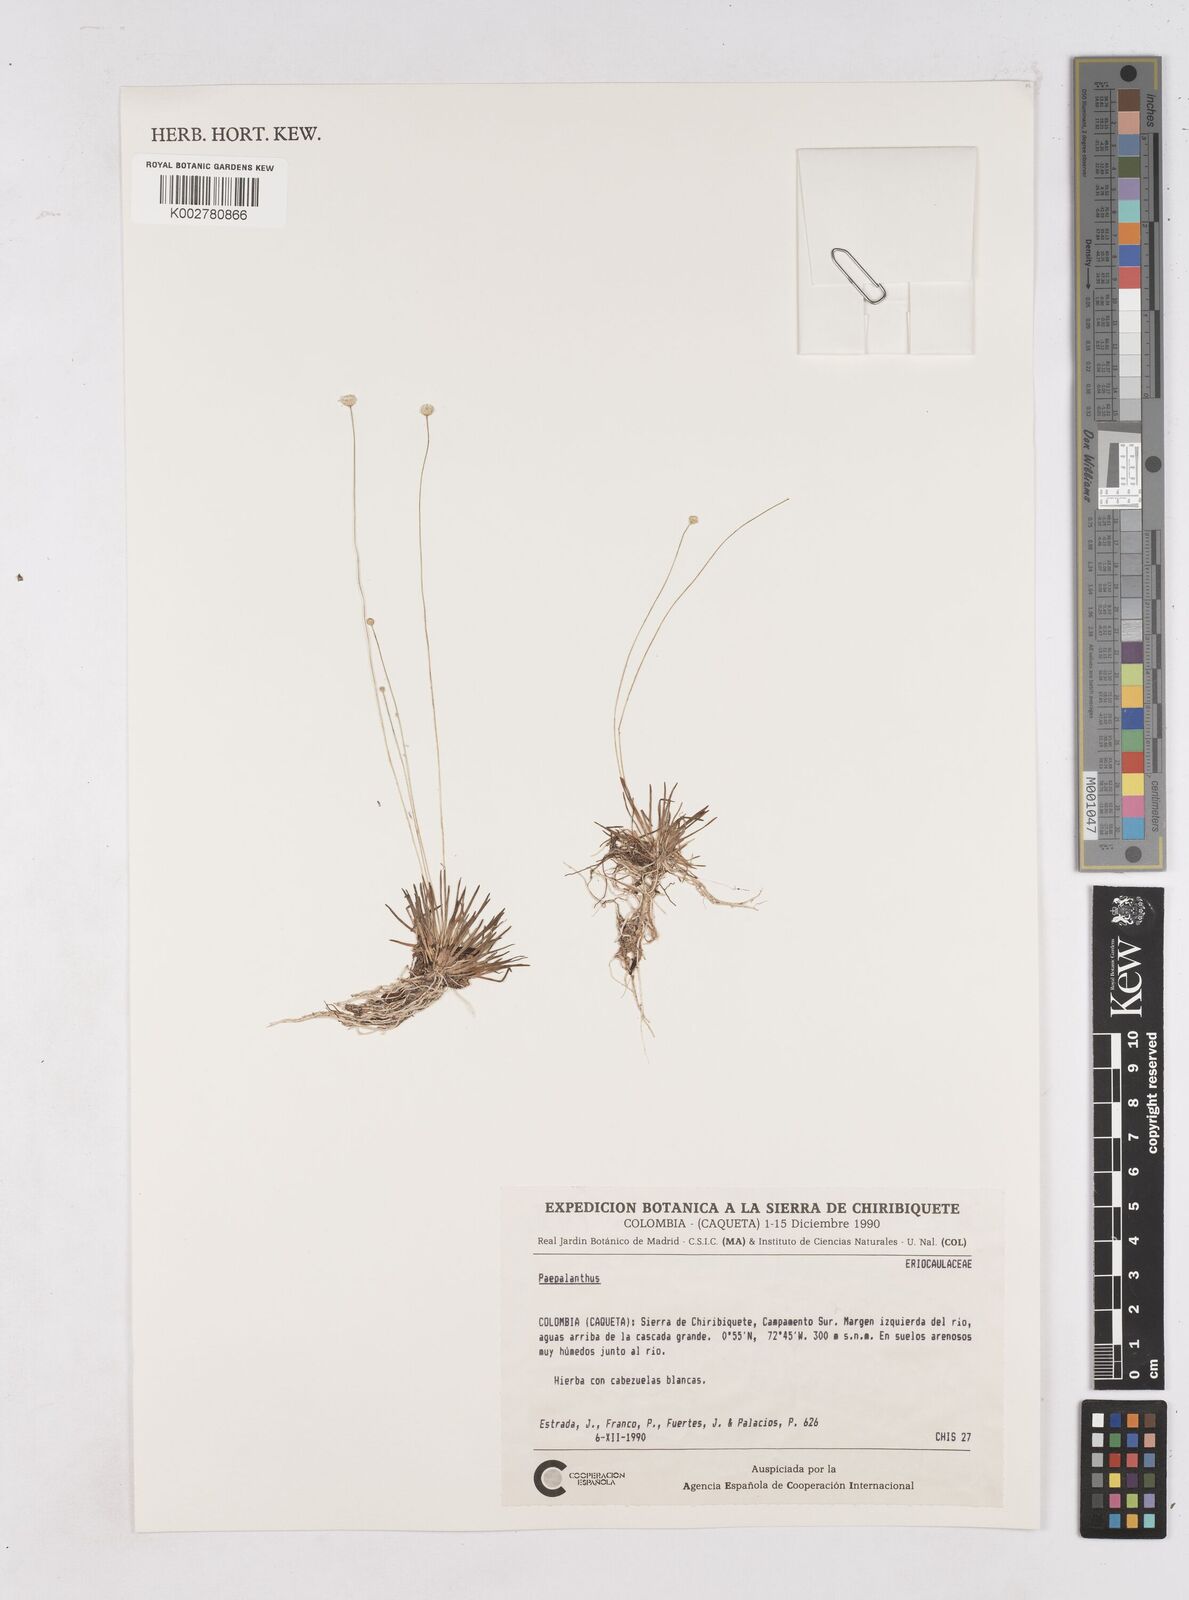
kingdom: Plantae
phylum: Tracheophyta
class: Liliopsida
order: Poales
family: Eriocaulaceae
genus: Paepalanthus
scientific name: Paepalanthus
